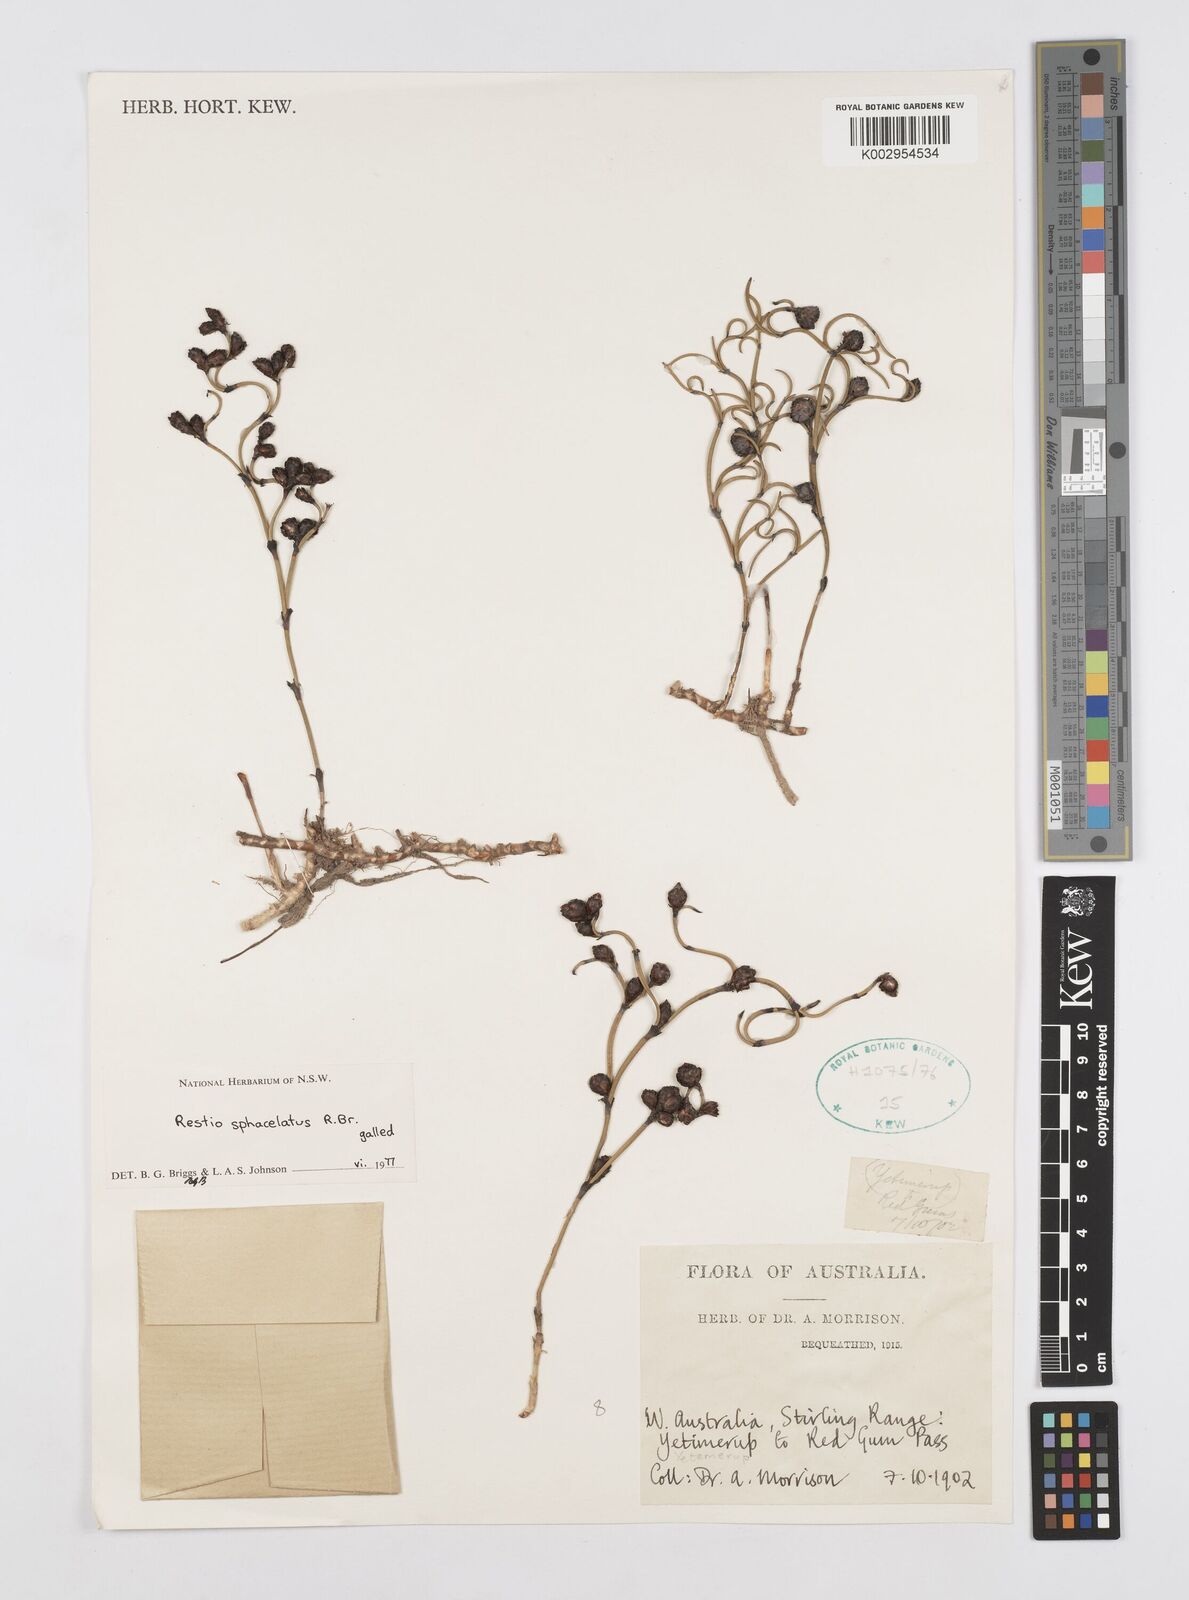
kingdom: Plantae
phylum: Tracheophyta
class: Liliopsida
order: Poales
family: Restionaceae
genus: Chordifex
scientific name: Chordifex sphacelatus
